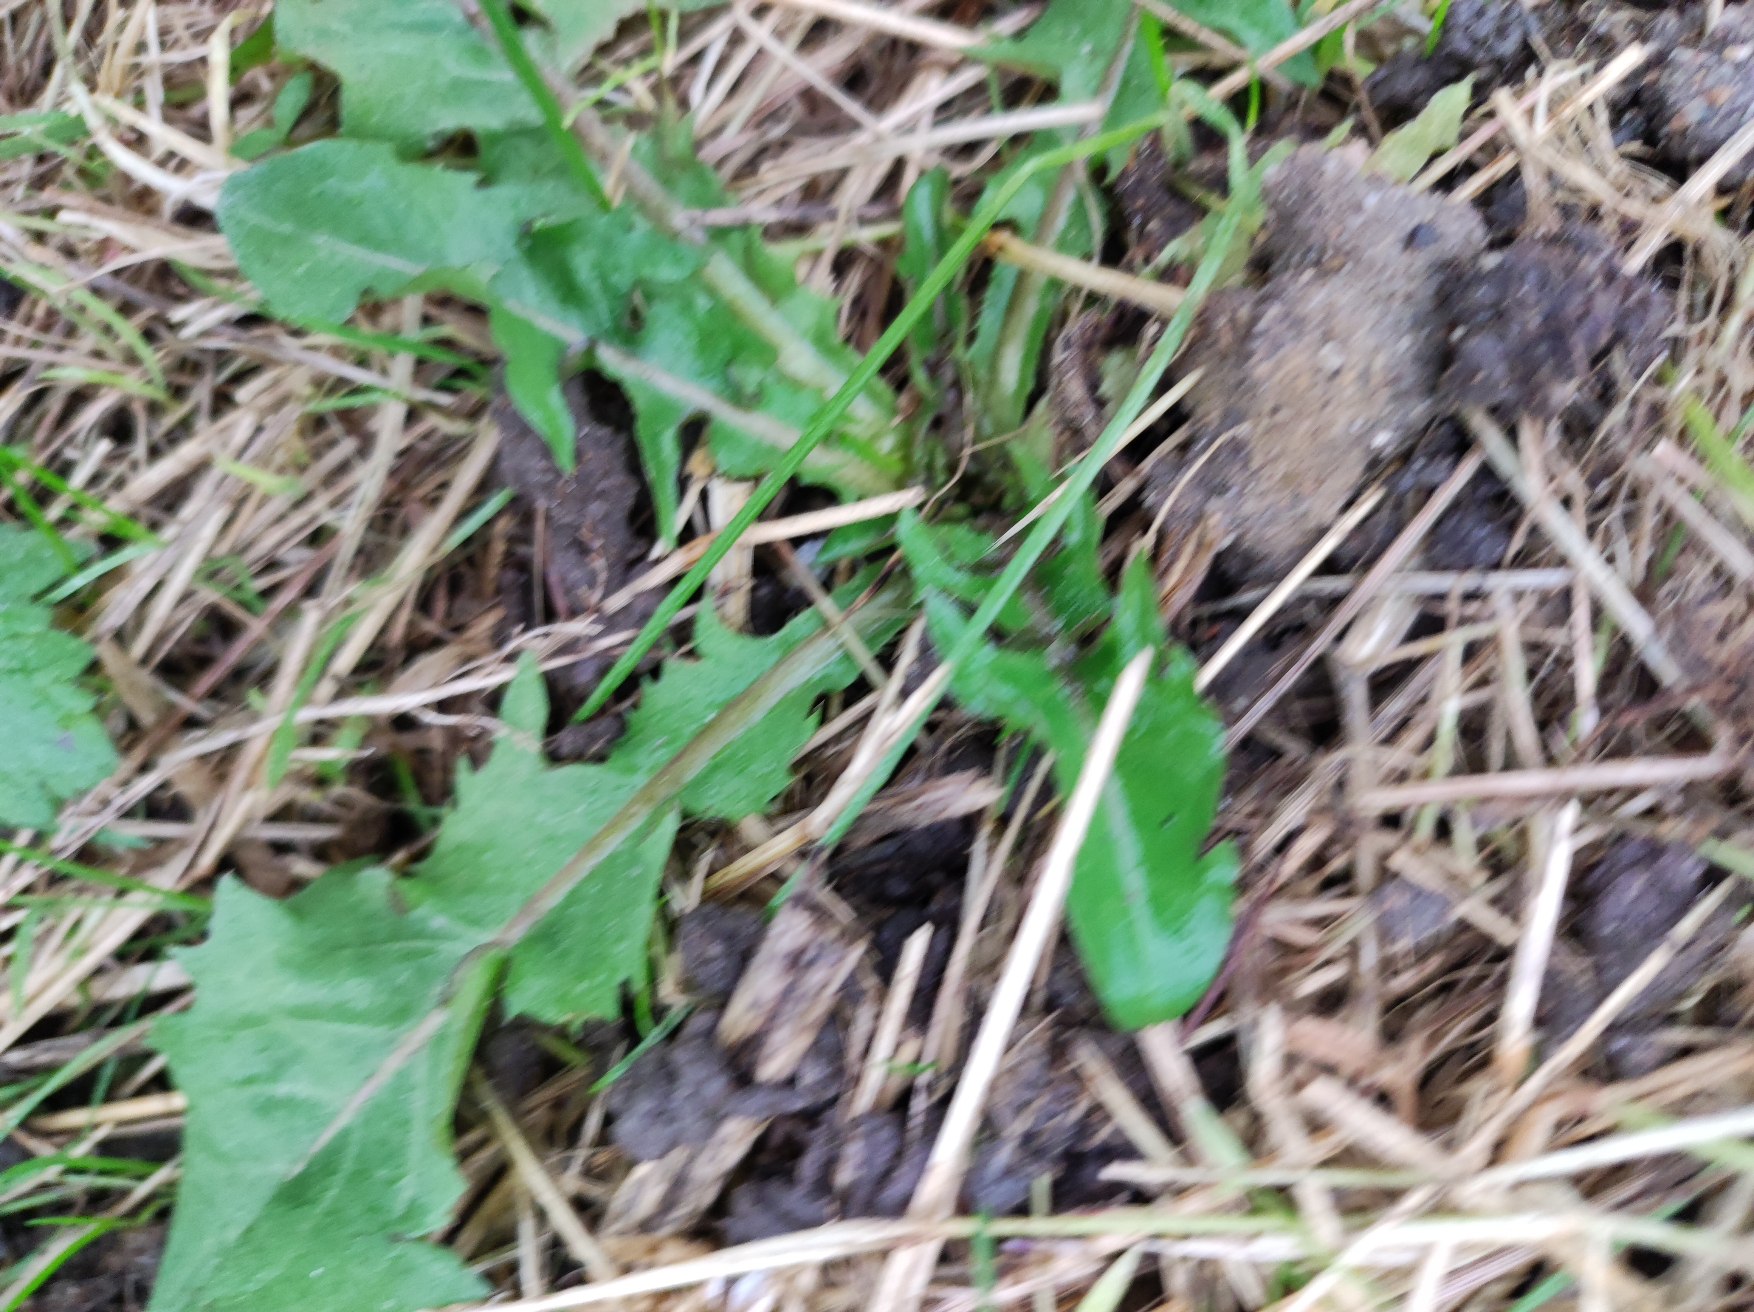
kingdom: Plantae
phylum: Tracheophyta
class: Magnoliopsida
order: Asterales
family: Asteraceae
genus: Taraxacum
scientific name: Taraxacum
